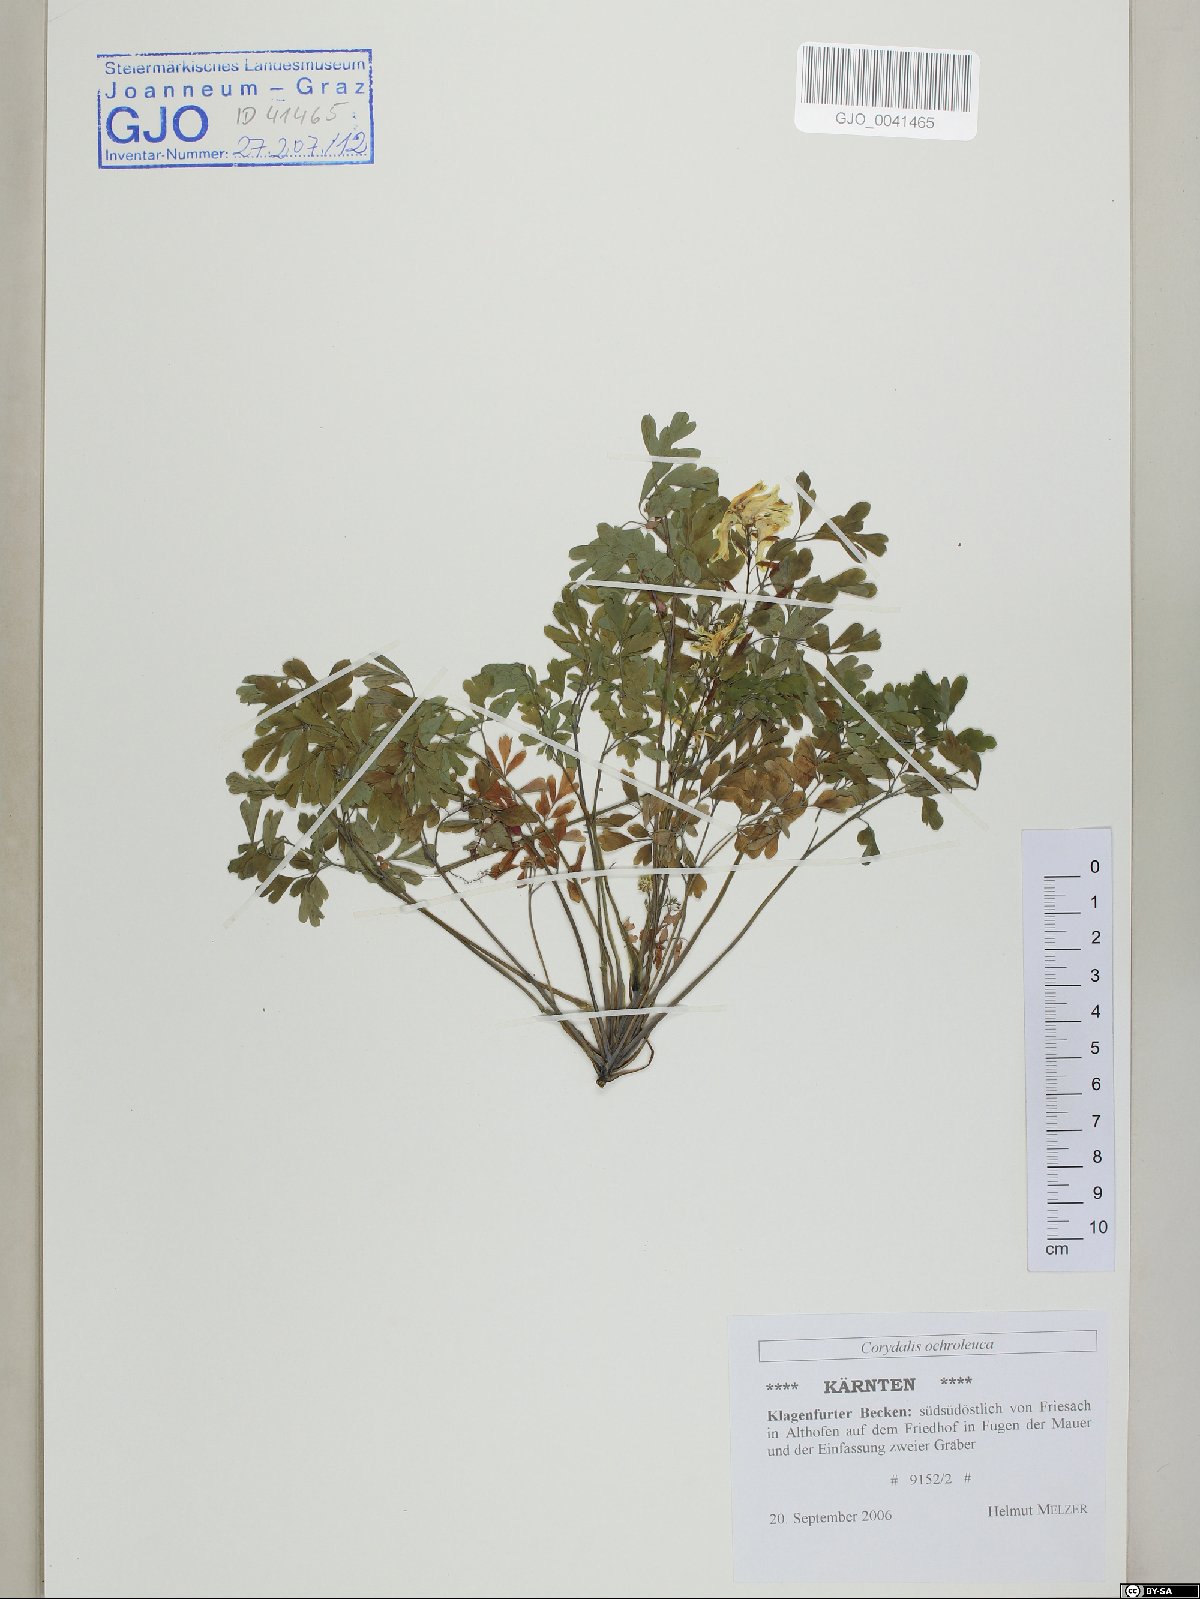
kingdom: Plantae
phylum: Tracheophyta
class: Magnoliopsida
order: Ranunculales
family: Papaveraceae
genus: Pseudofumaria
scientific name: Pseudofumaria alba
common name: Pale corydalis
